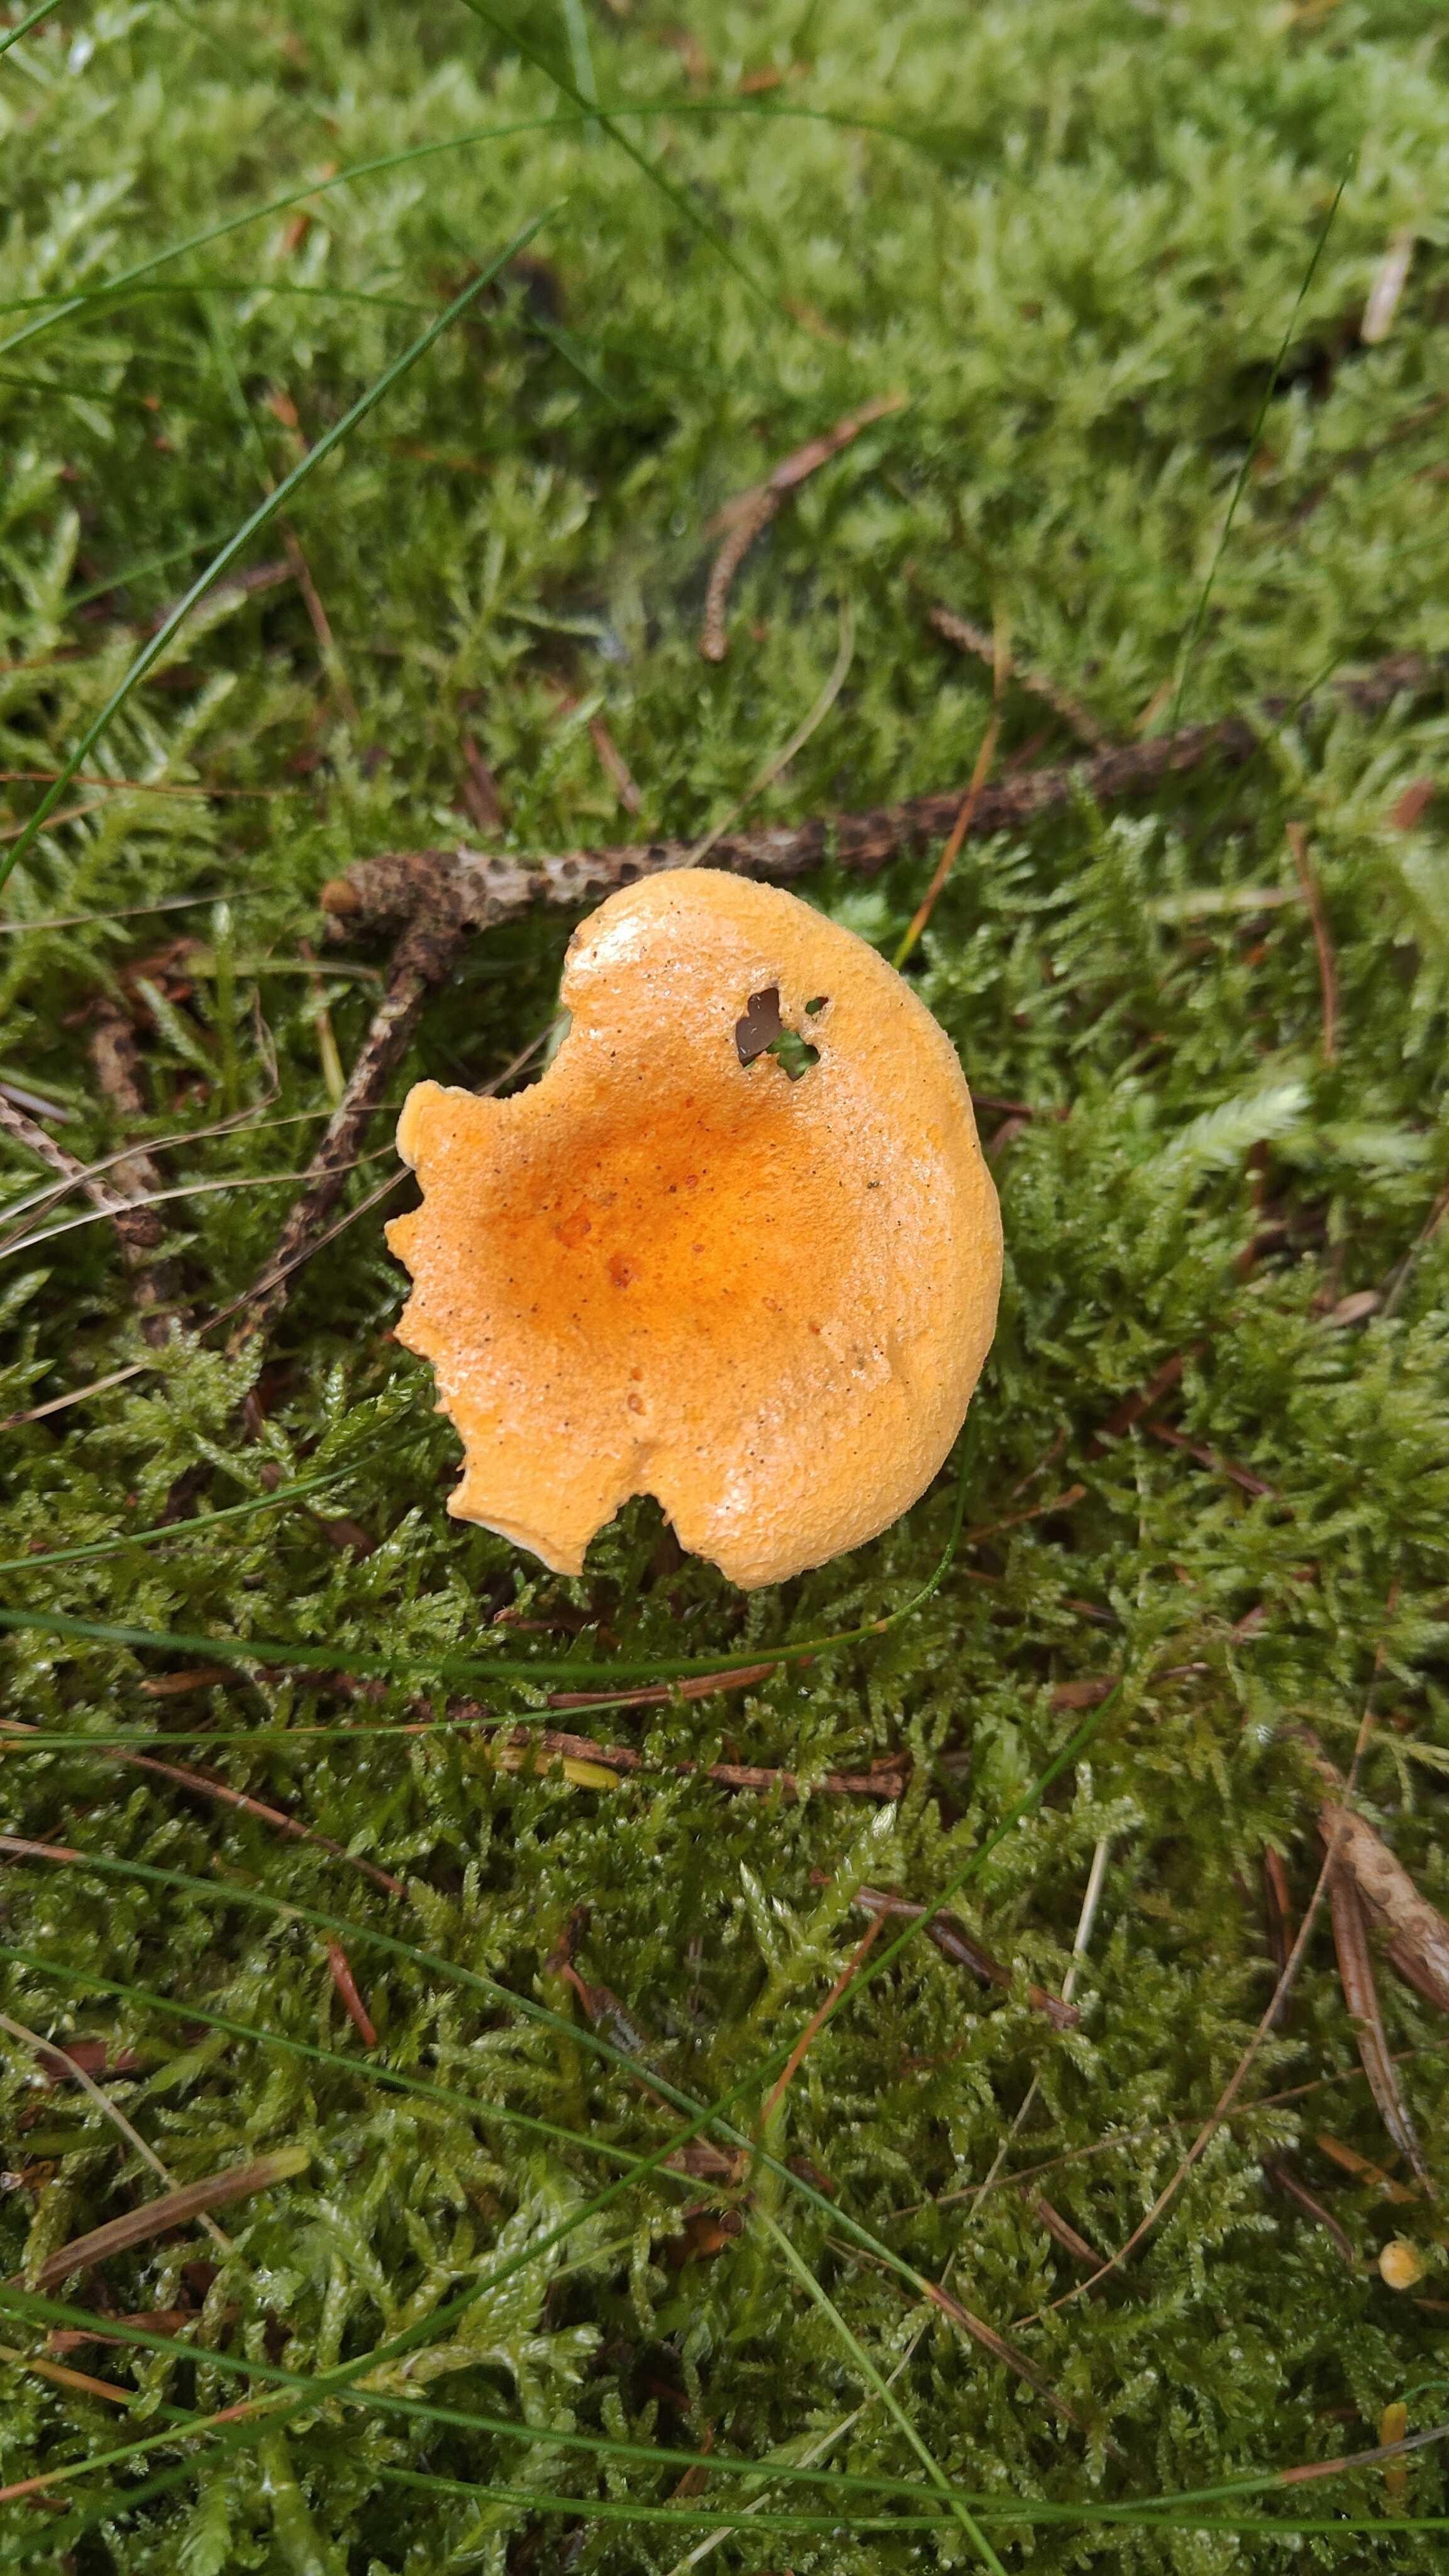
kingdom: Fungi
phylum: Basidiomycota
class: Agaricomycetes
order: Boletales
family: Hygrophoropsidaceae
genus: Hygrophoropsis
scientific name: Hygrophoropsis aurantiaca
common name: almindelig orangekantarel
